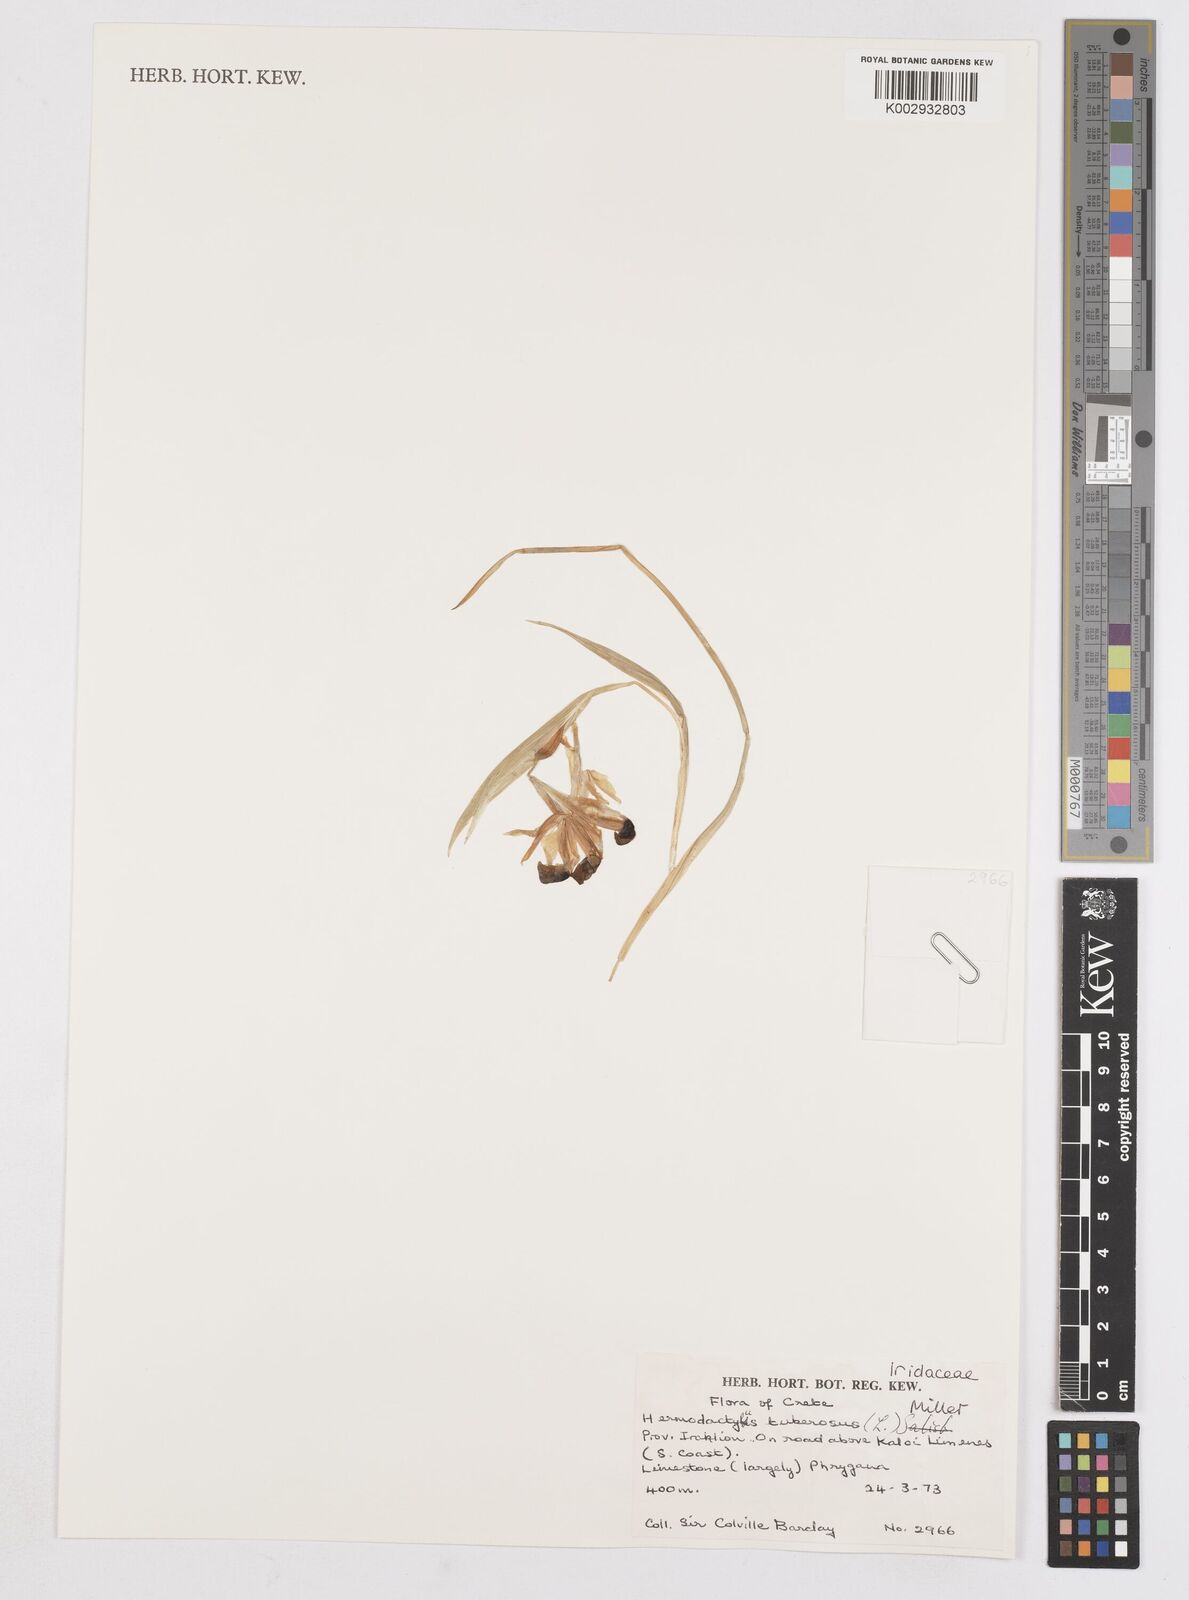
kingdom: Plantae
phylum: Tracheophyta
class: Liliopsida
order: Asparagales
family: Iridaceae
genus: Iris
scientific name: Iris
